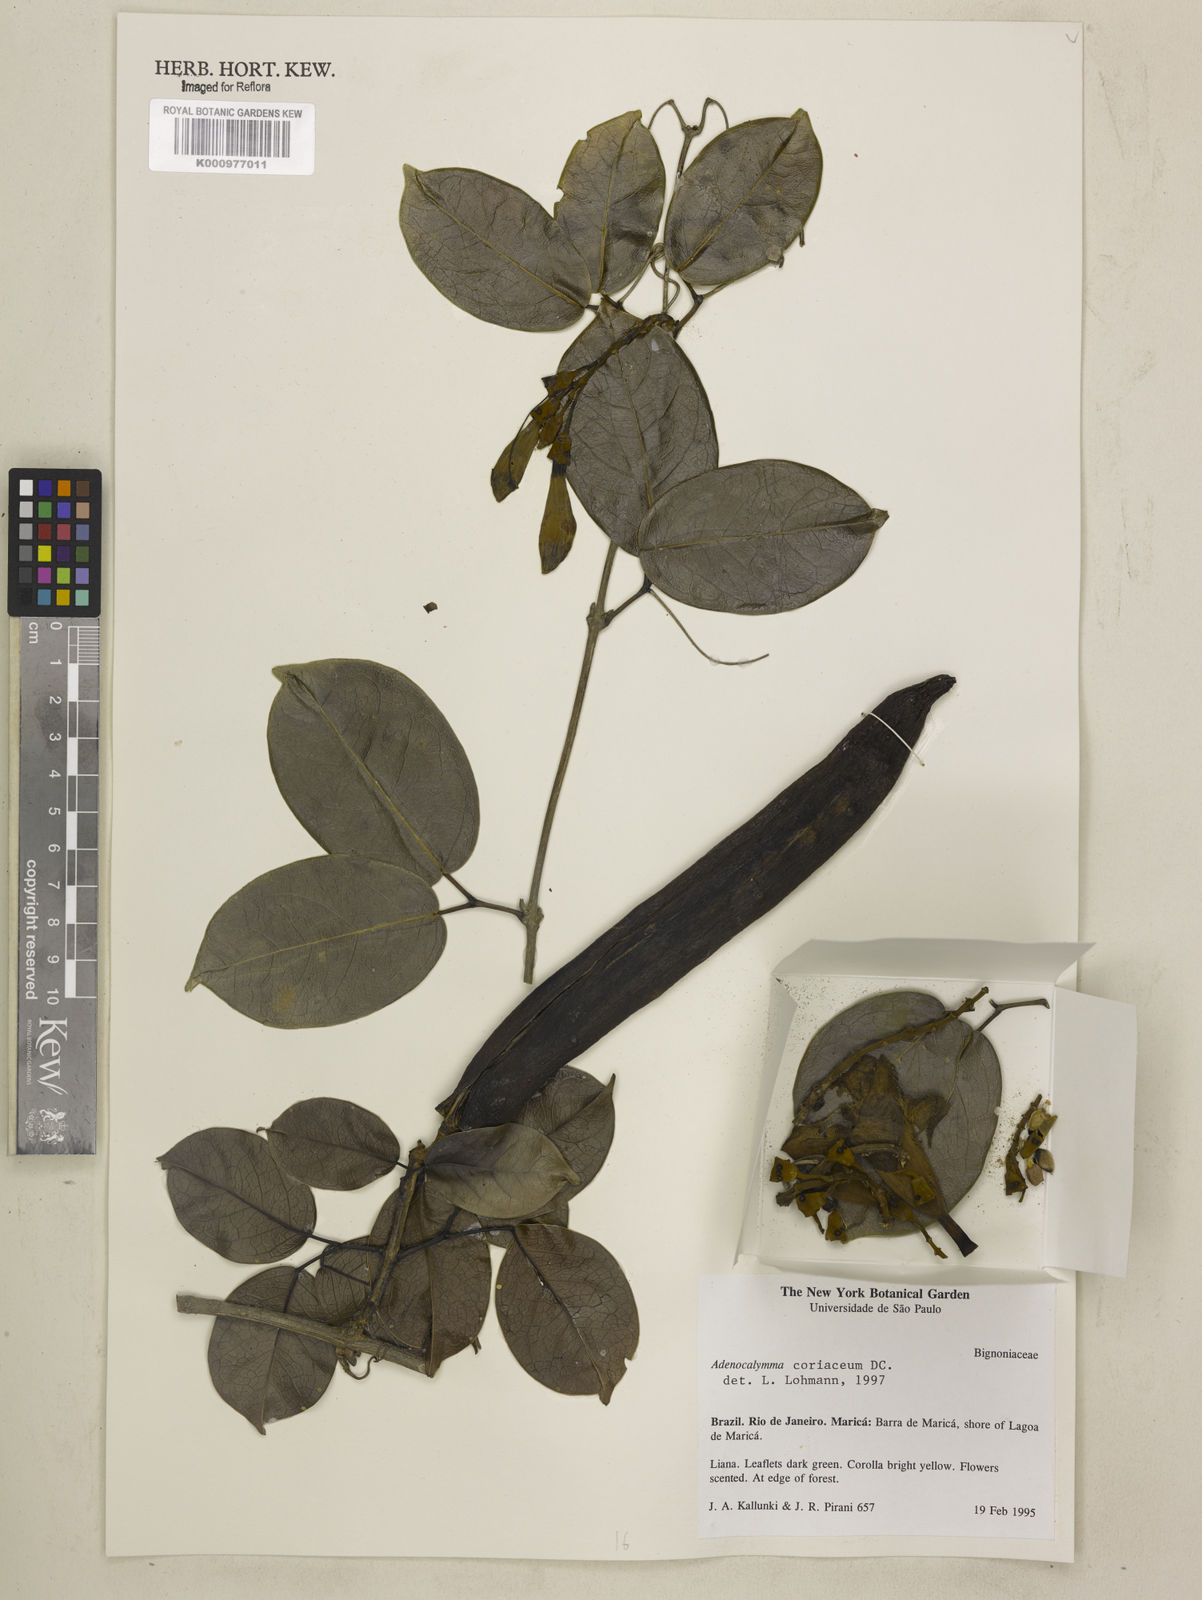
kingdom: Plantae
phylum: Tracheophyta
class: Magnoliopsida
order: Lamiales
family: Bignoniaceae
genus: Adenocalymma
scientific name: Adenocalymma coriaceum
